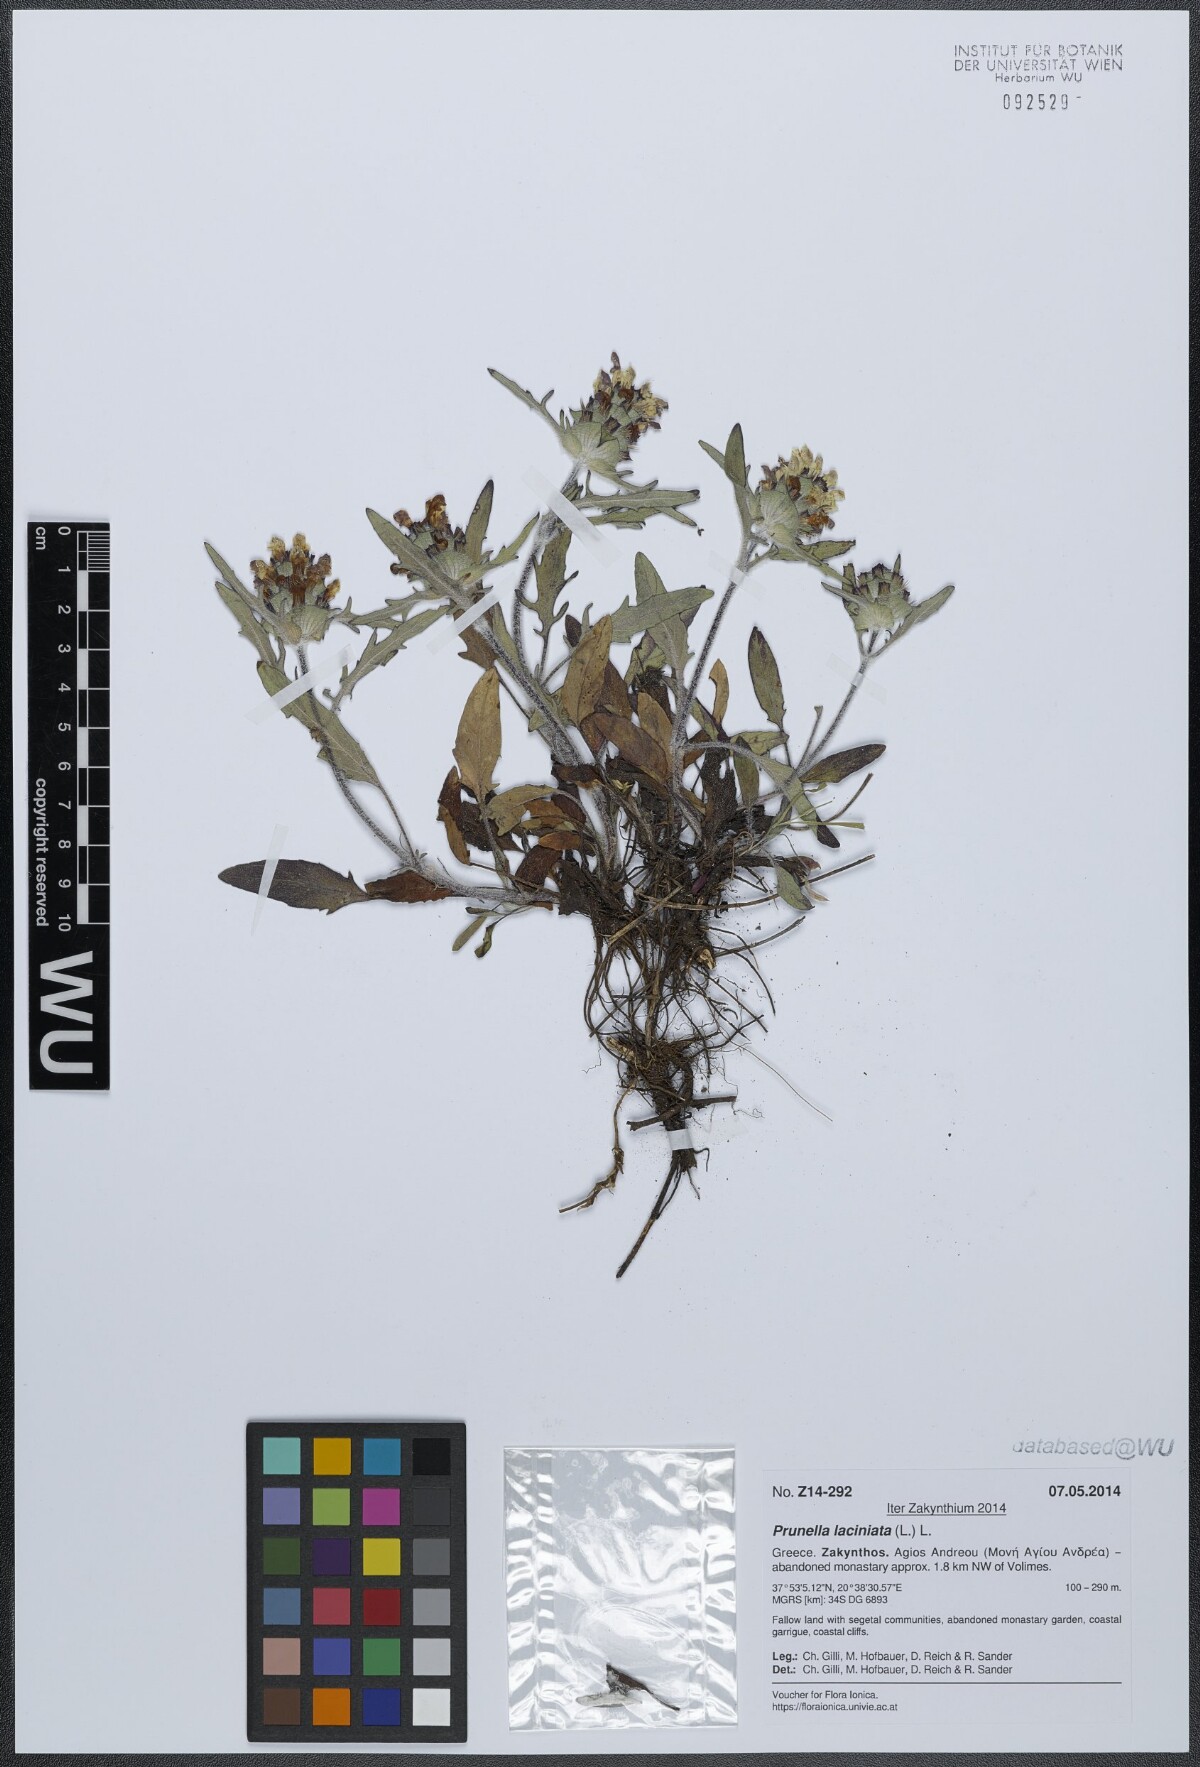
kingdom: Plantae
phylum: Tracheophyta
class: Magnoliopsida
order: Lamiales
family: Lamiaceae
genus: Prunella
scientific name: Prunella laciniata
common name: Cut-leaved selfheal
